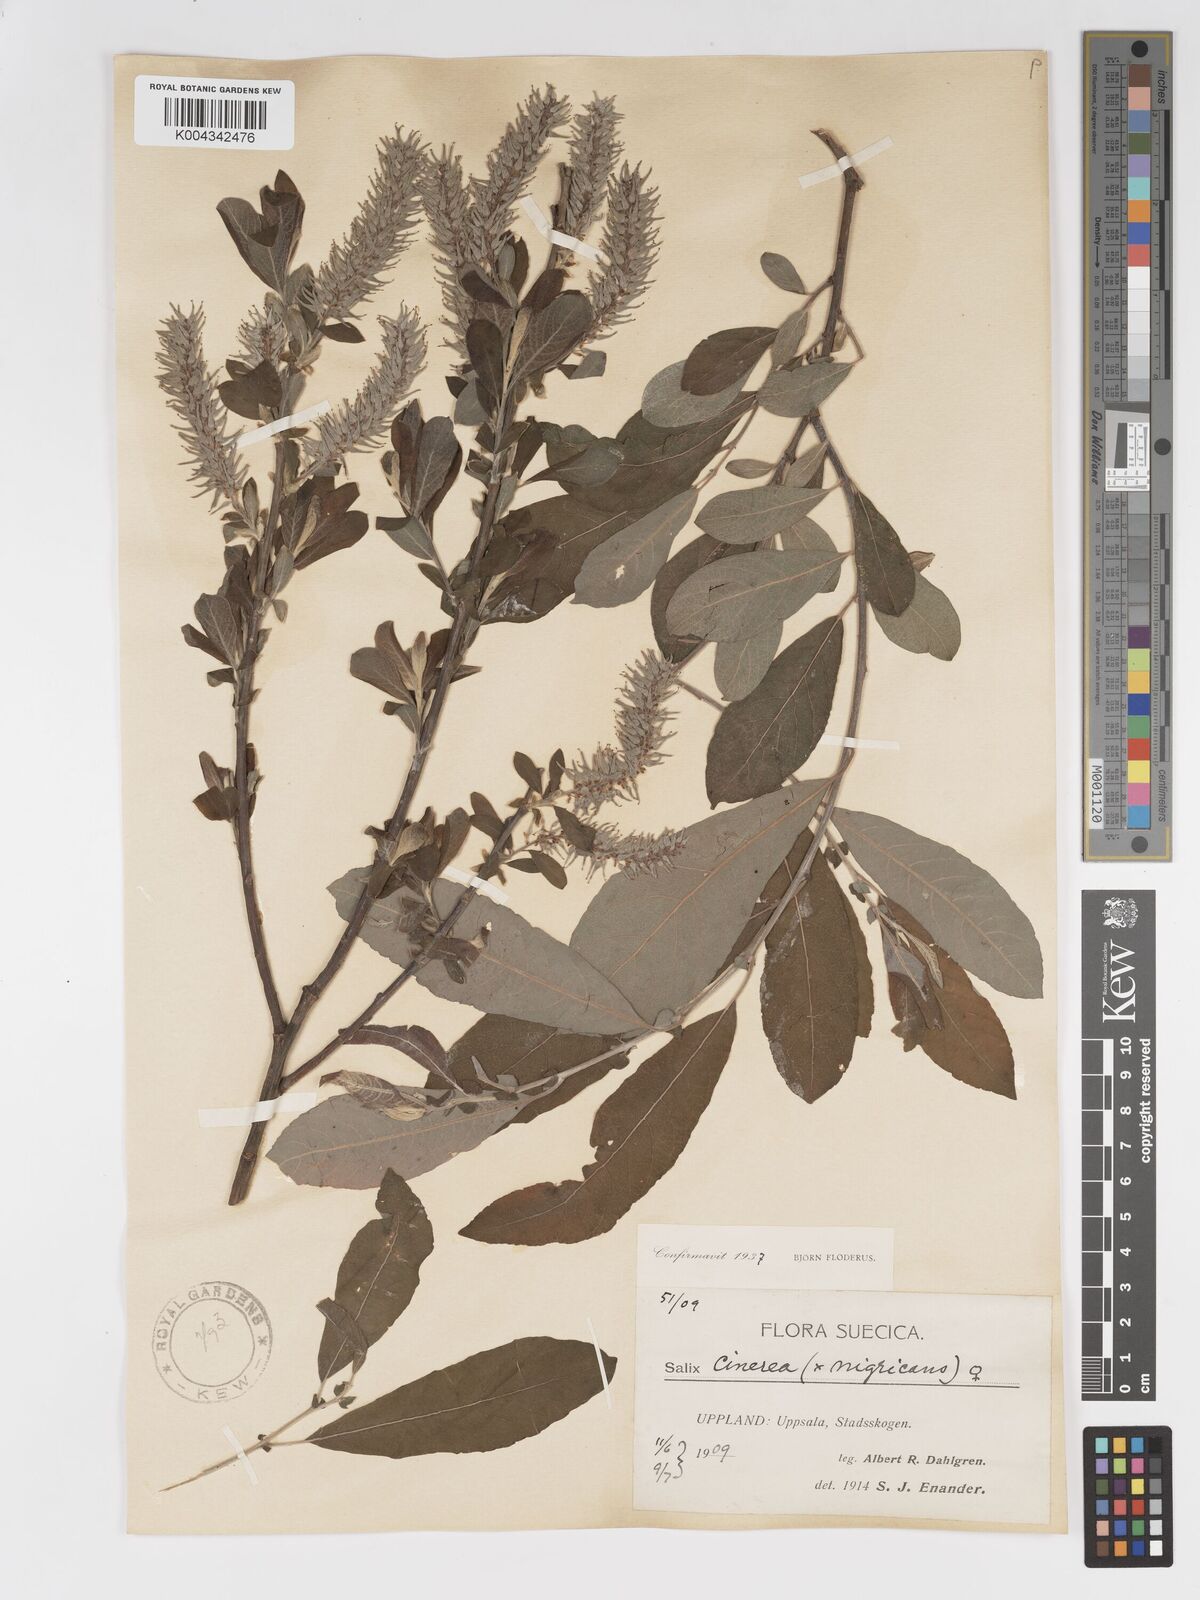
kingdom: Plantae
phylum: Tracheophyta
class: Magnoliopsida
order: Malpighiales
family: Salicaceae
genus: Salix
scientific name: Salix
